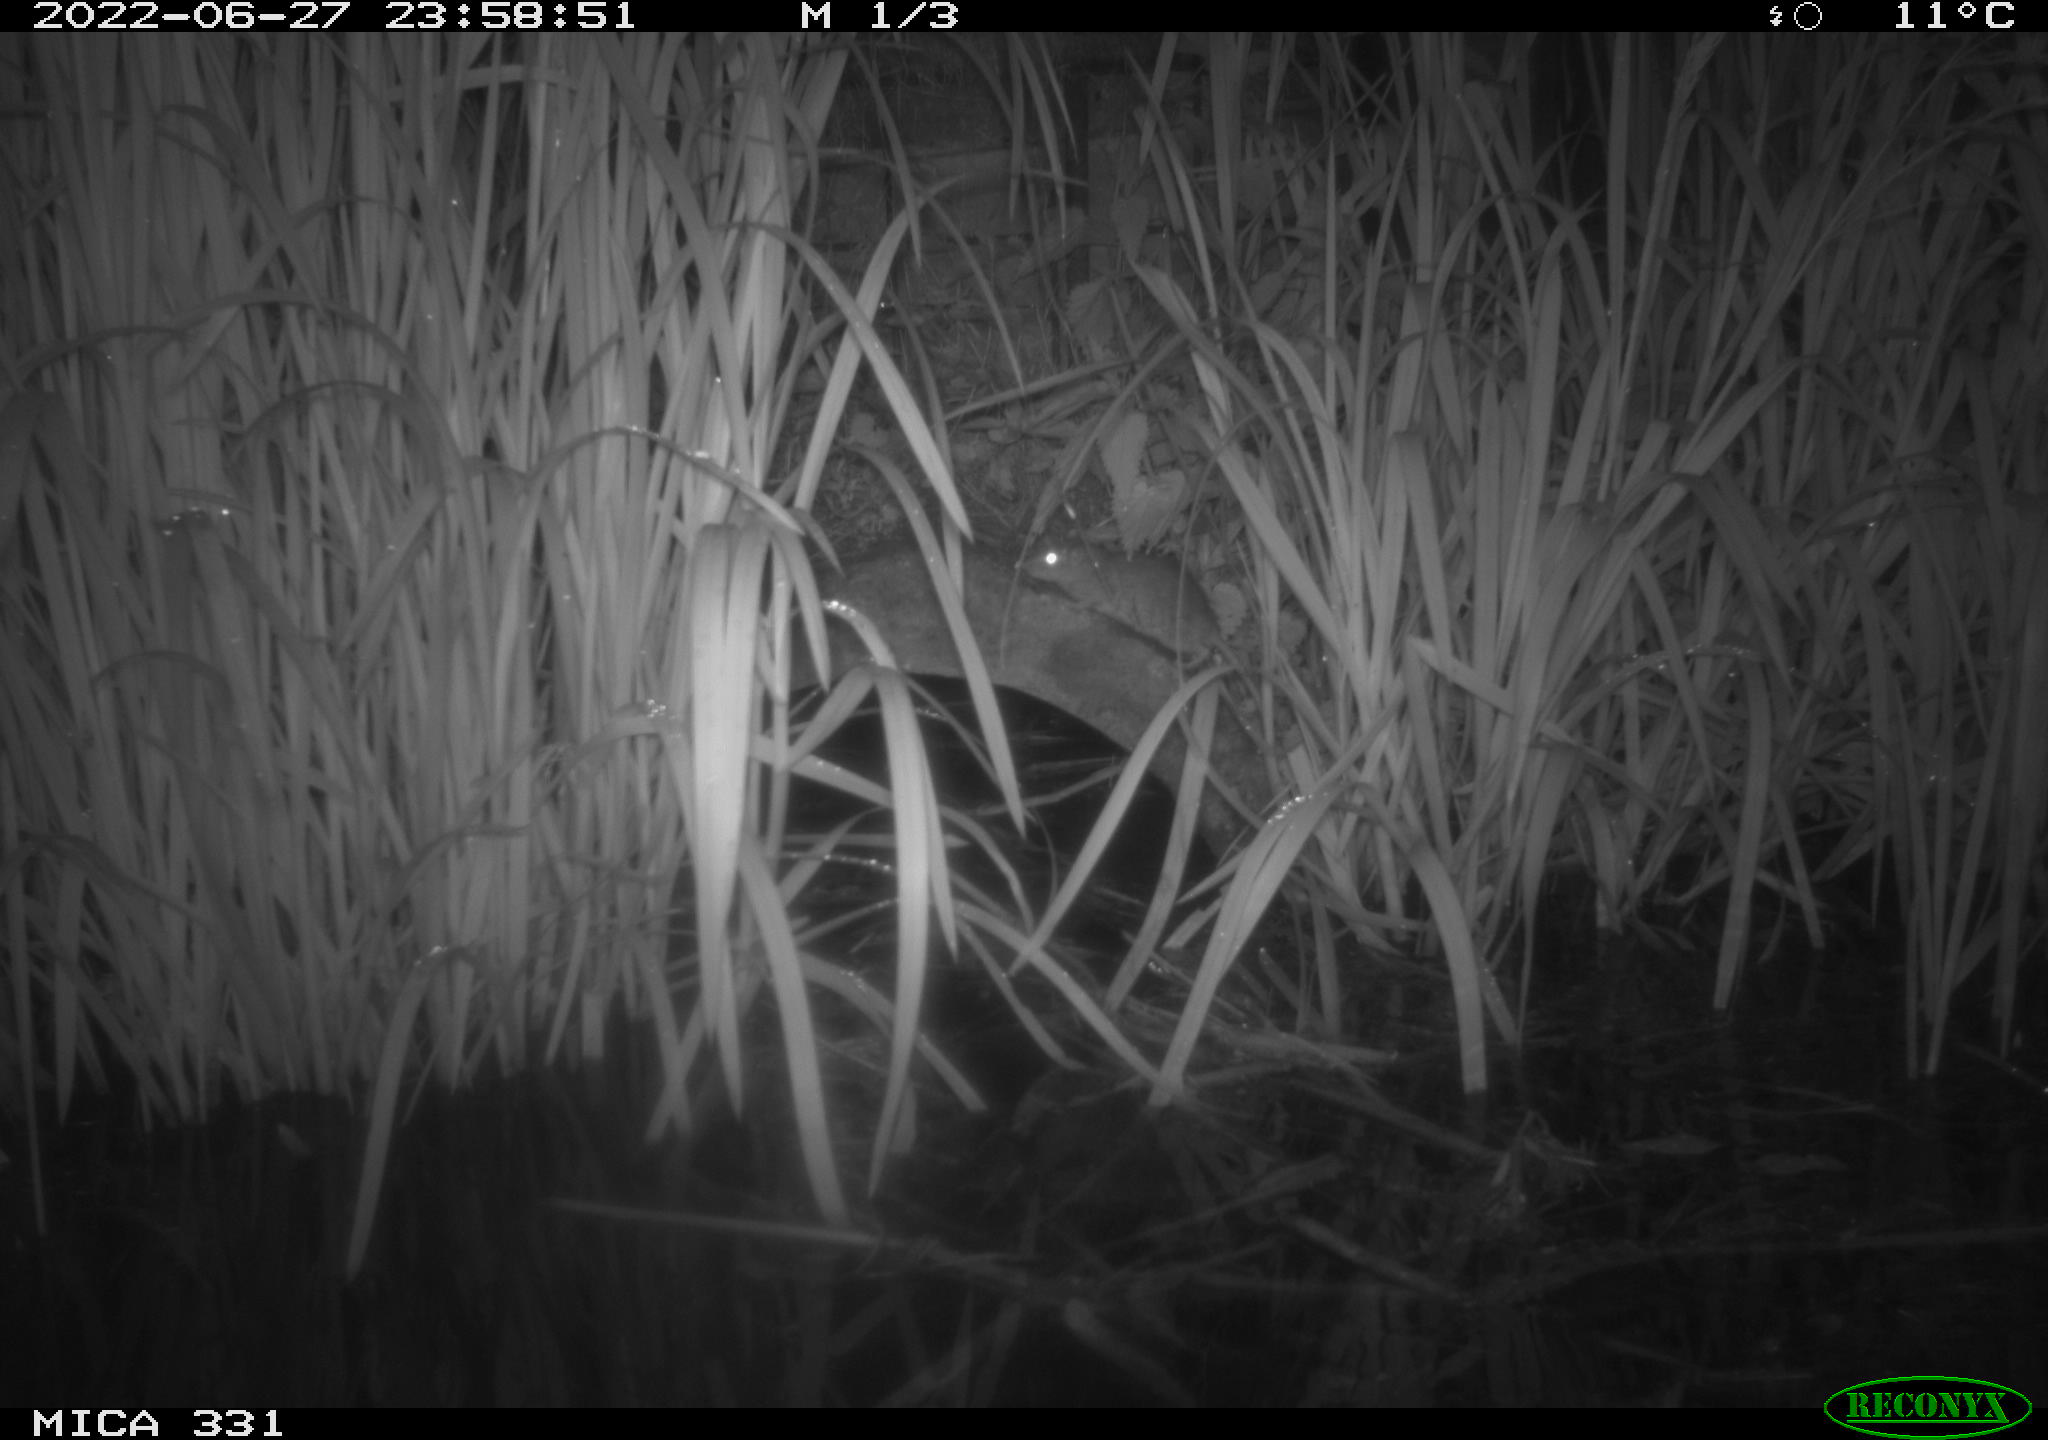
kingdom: Animalia
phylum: Chordata
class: Mammalia
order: Rodentia
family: Muridae
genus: Rattus
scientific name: Rattus norvegicus
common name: Brown rat
